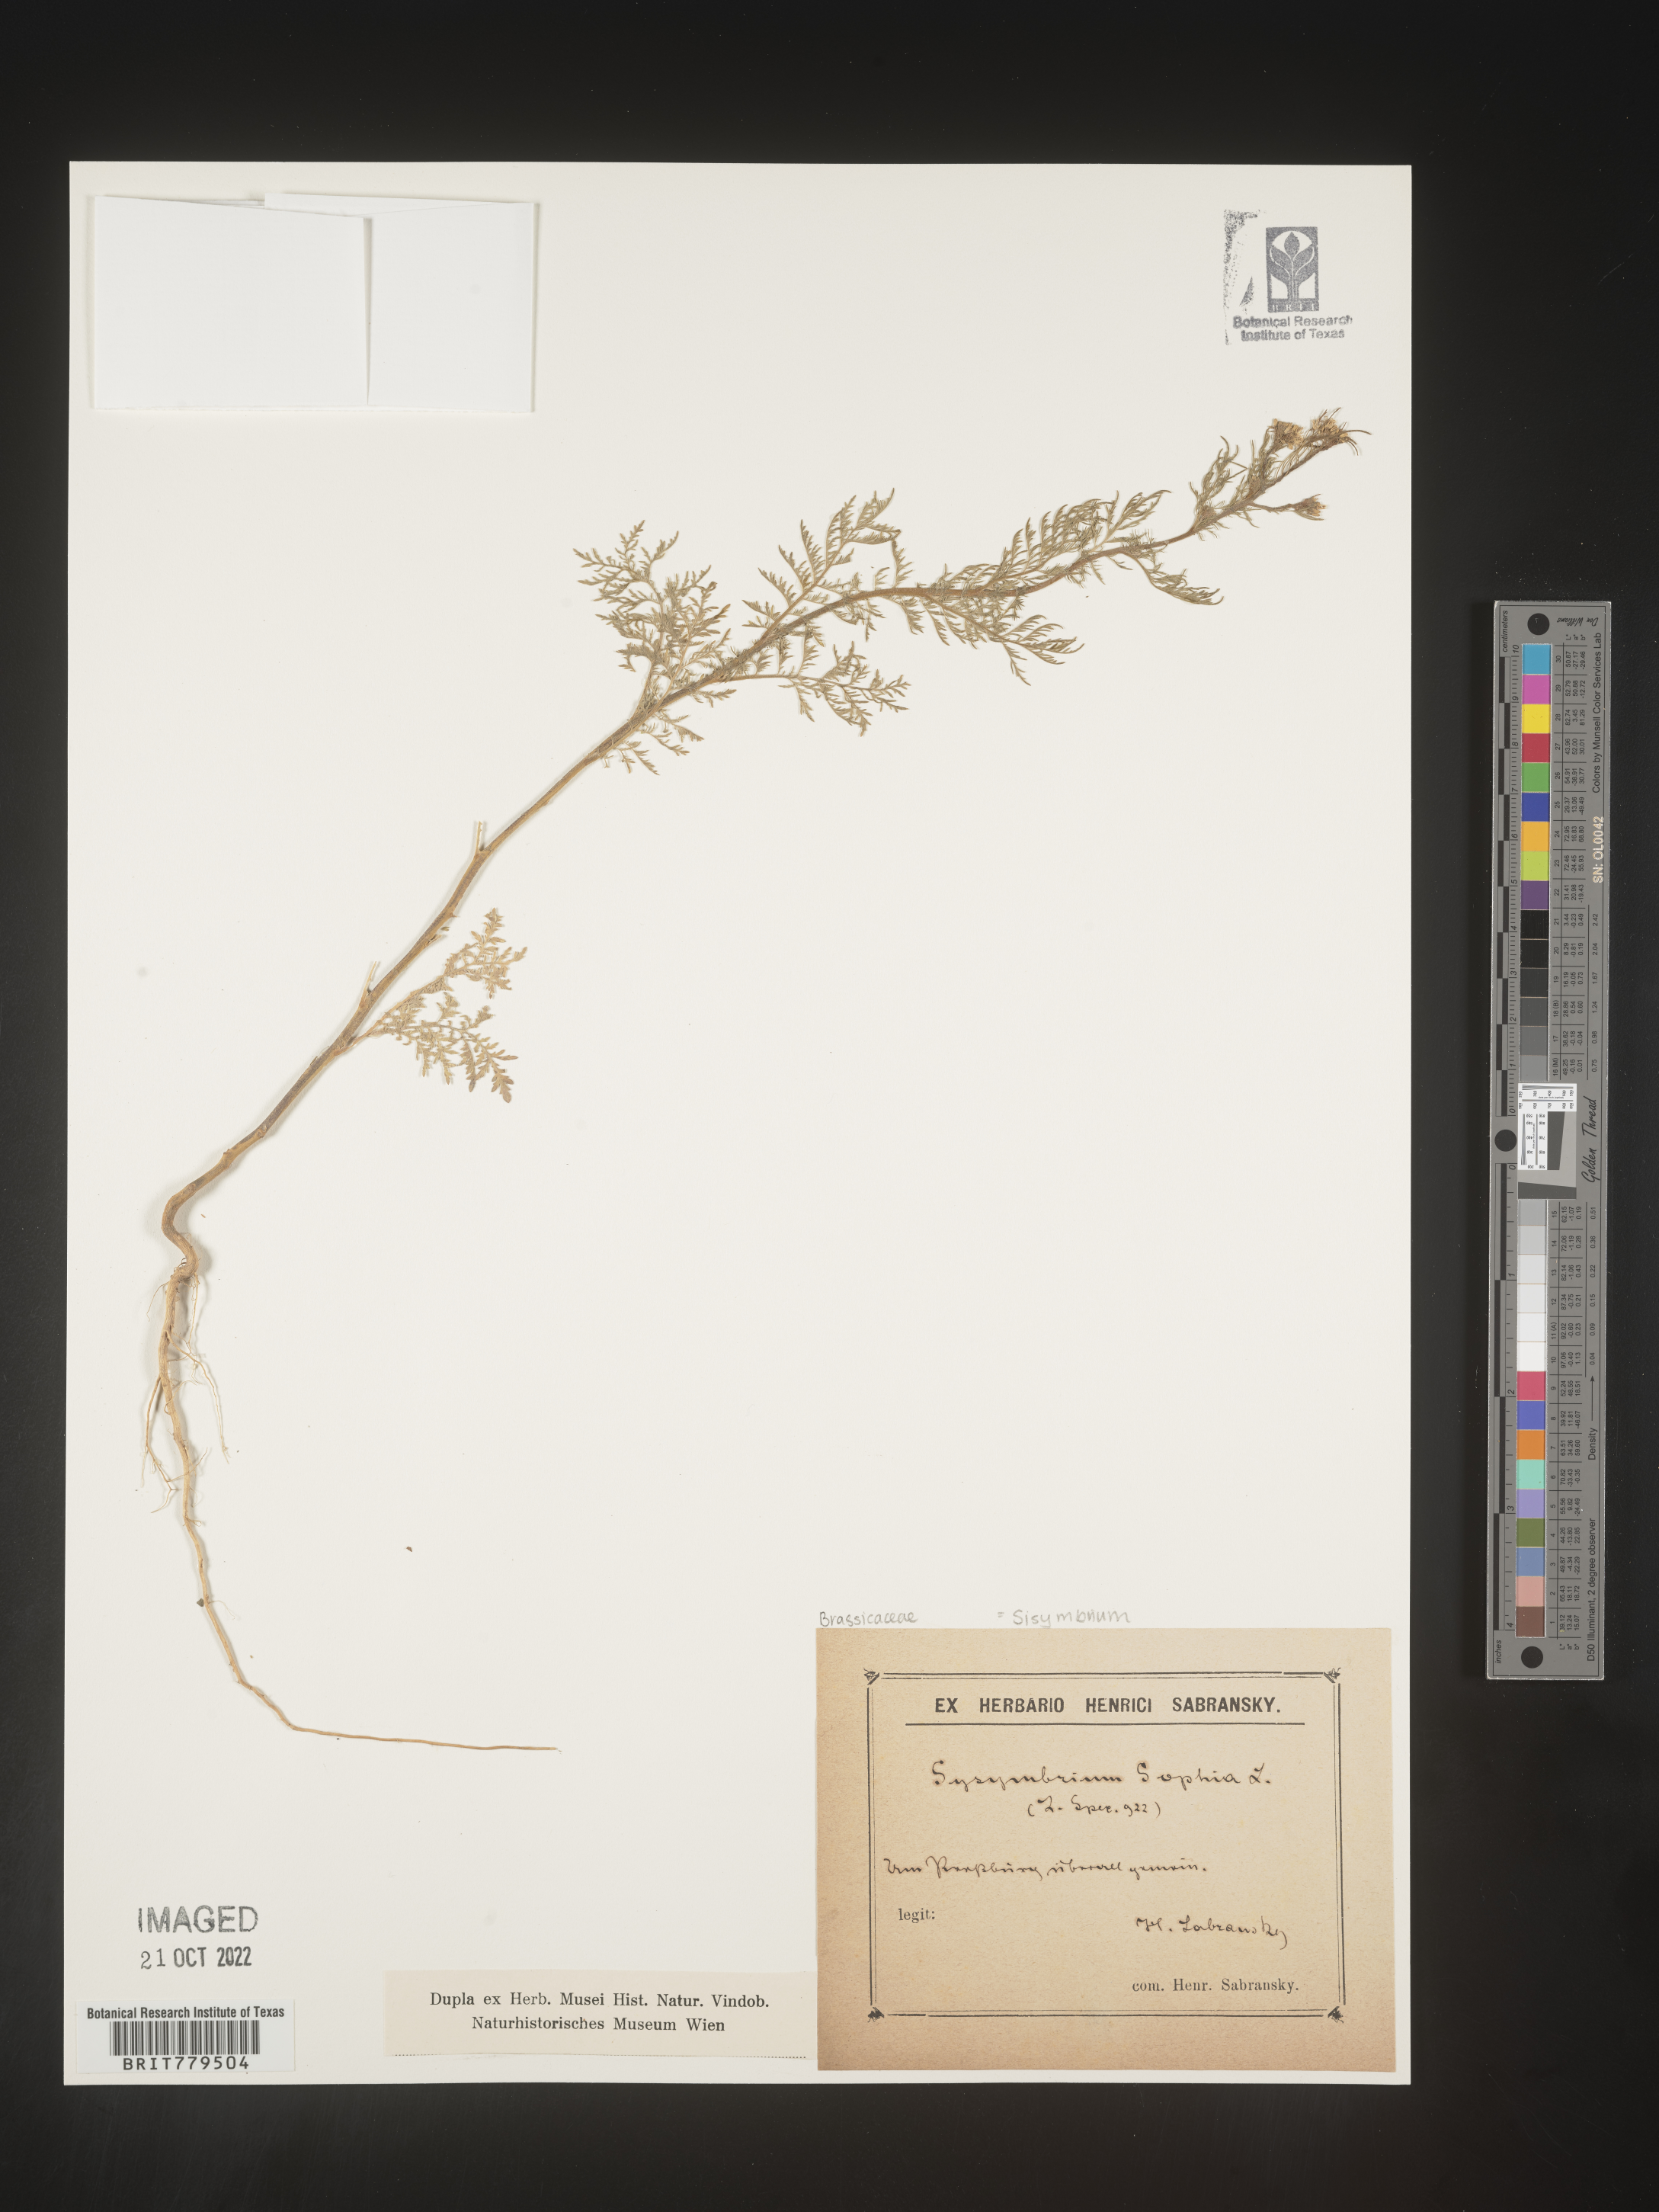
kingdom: Plantae
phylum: Tracheophyta
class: Magnoliopsida
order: Brassicales
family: Brassicaceae
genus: Sisymbrium
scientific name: Sisymbrium
